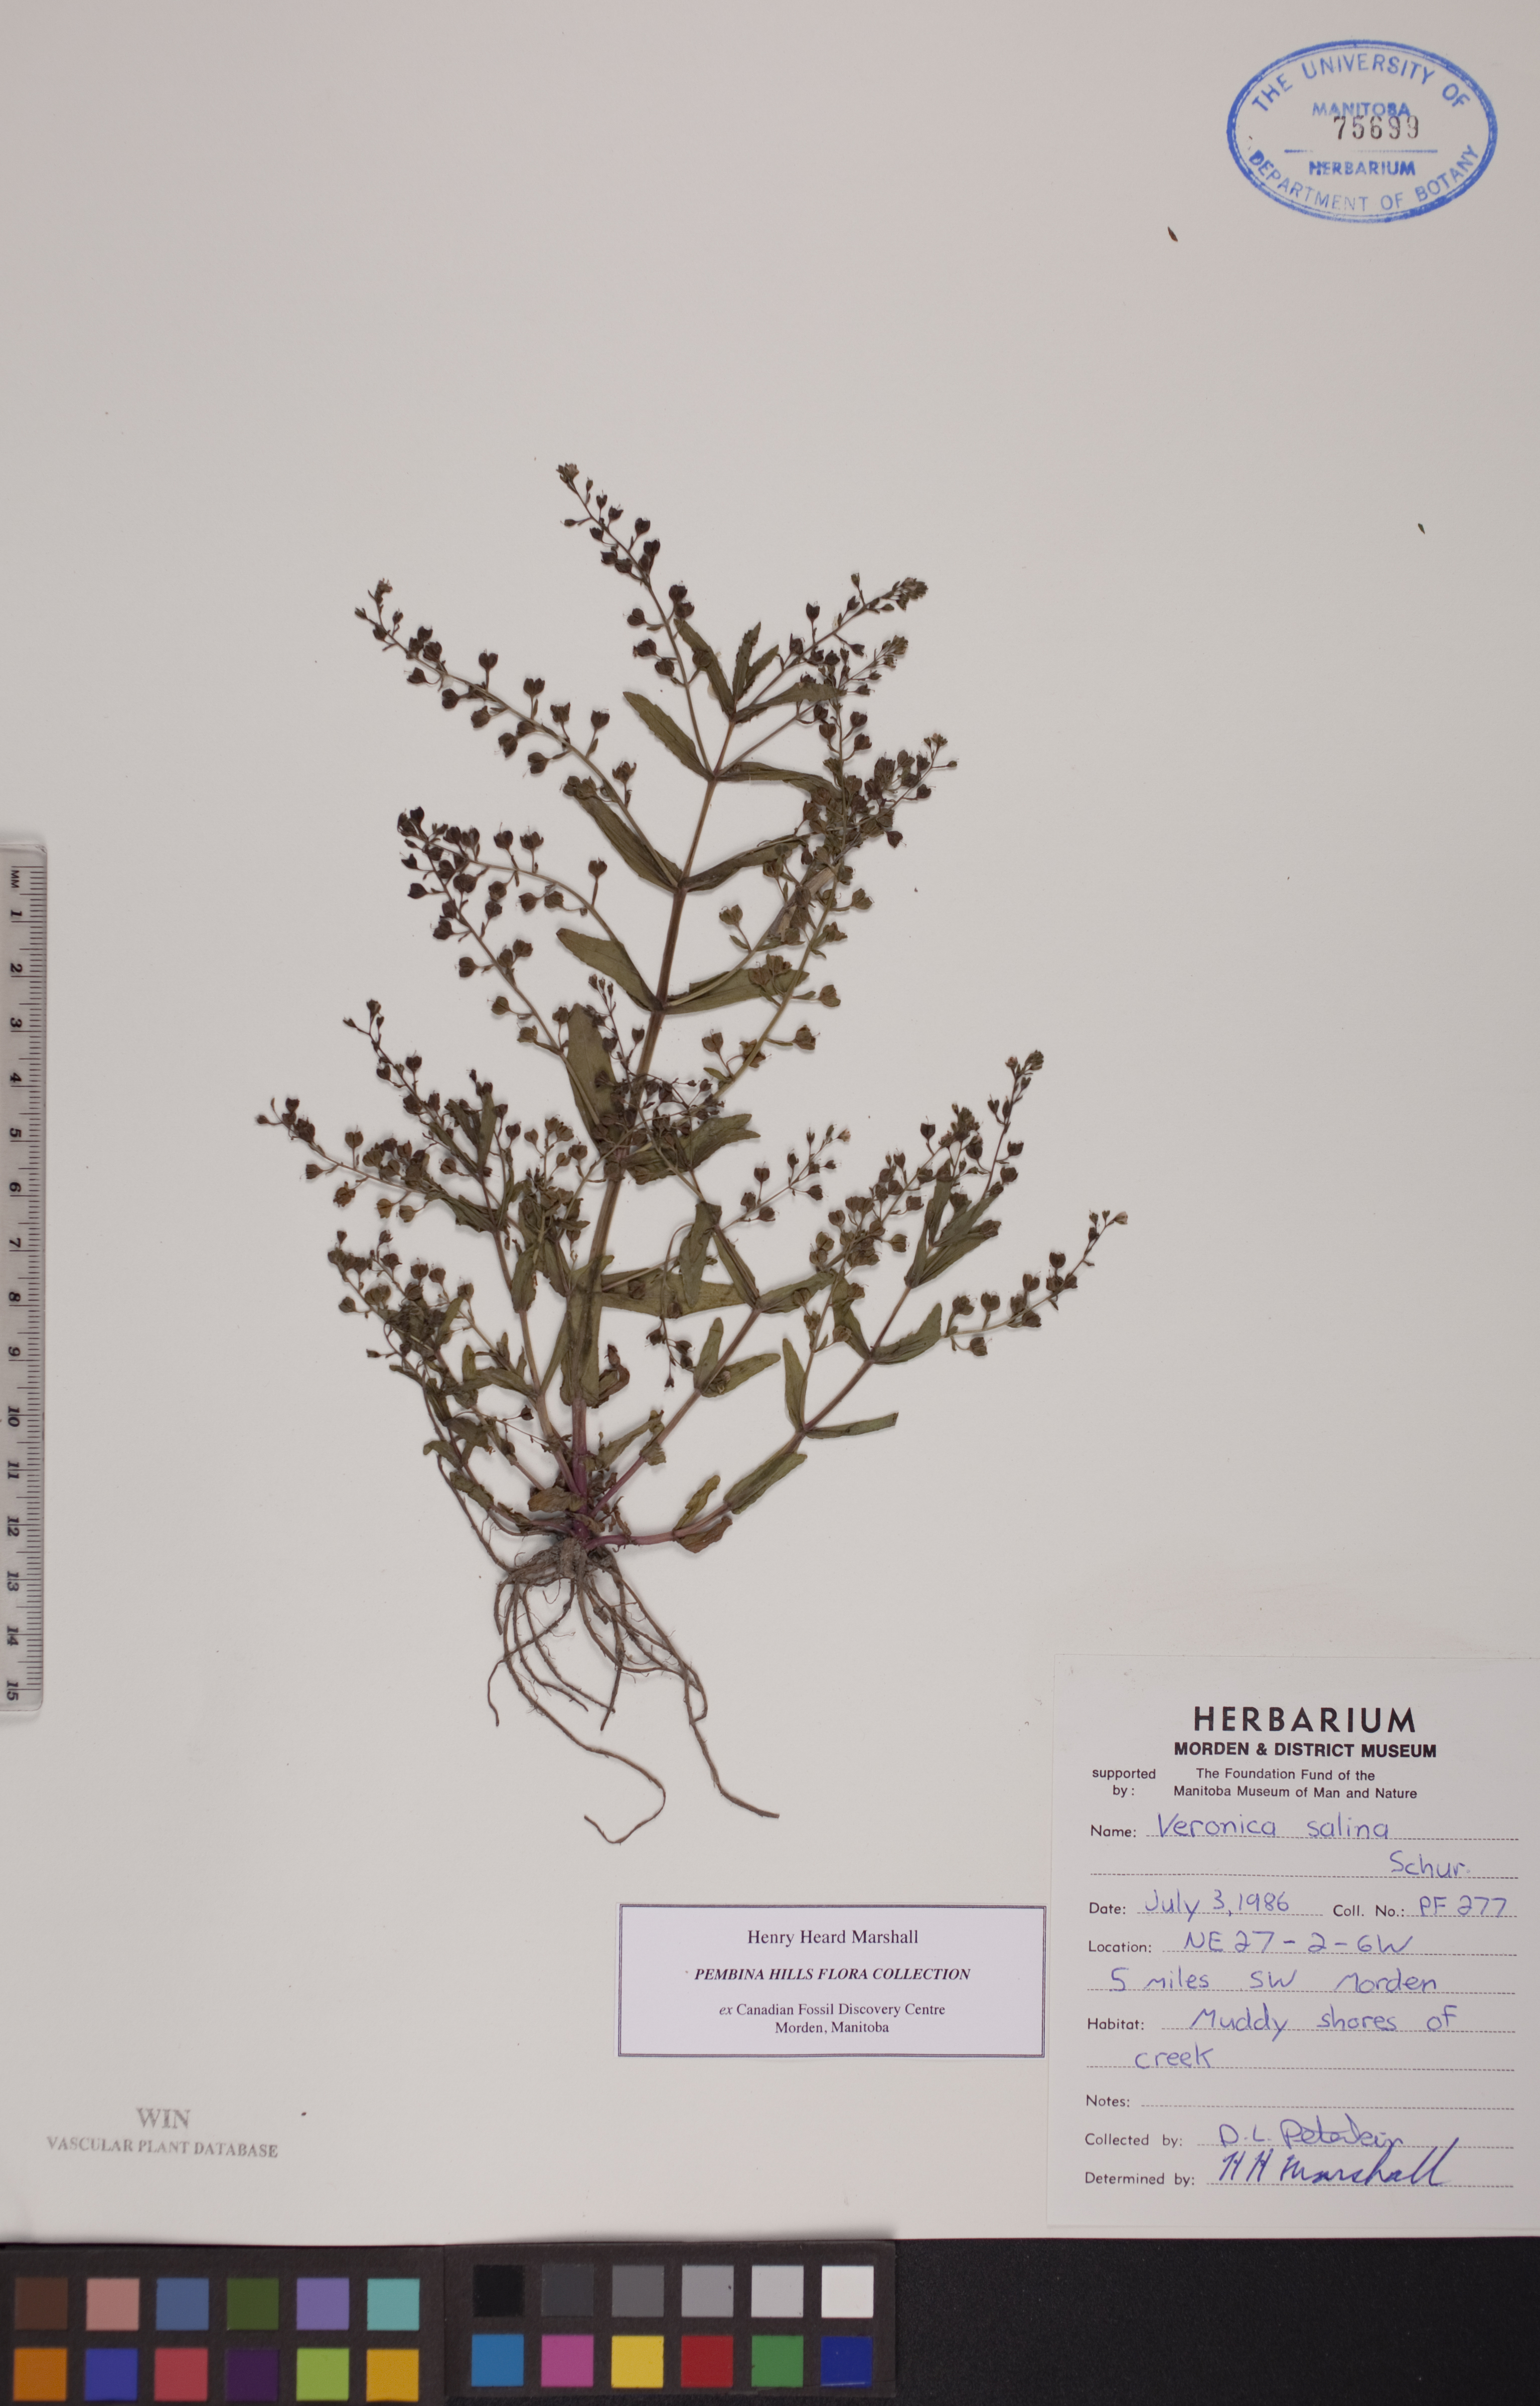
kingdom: Plantae
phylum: Tracheophyta
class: Magnoliopsida
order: Lamiales
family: Plantaginaceae
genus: Veronica
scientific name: Veronica anagalloides
